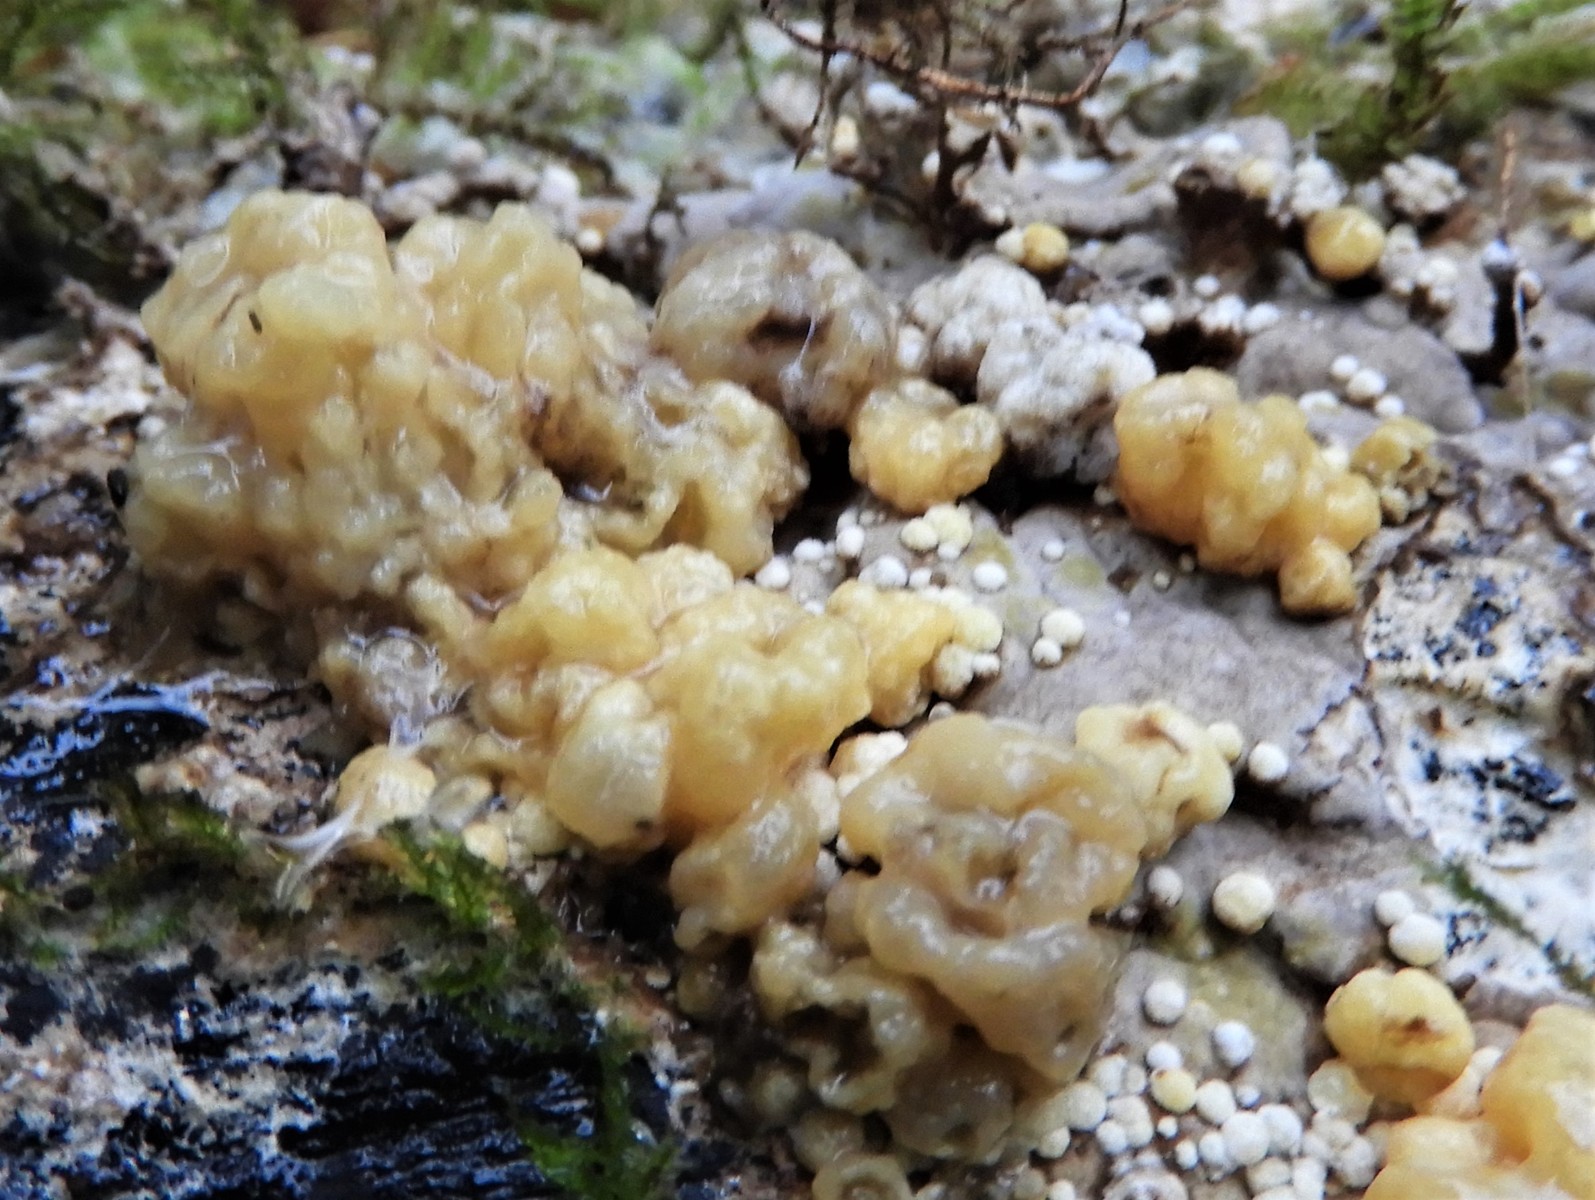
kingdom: Fungi
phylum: Ascomycota
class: Sordariomycetes
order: Xylariales
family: Hypoxylaceae
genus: Nodulisporium
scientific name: Nodulisporium cecidiogenes
